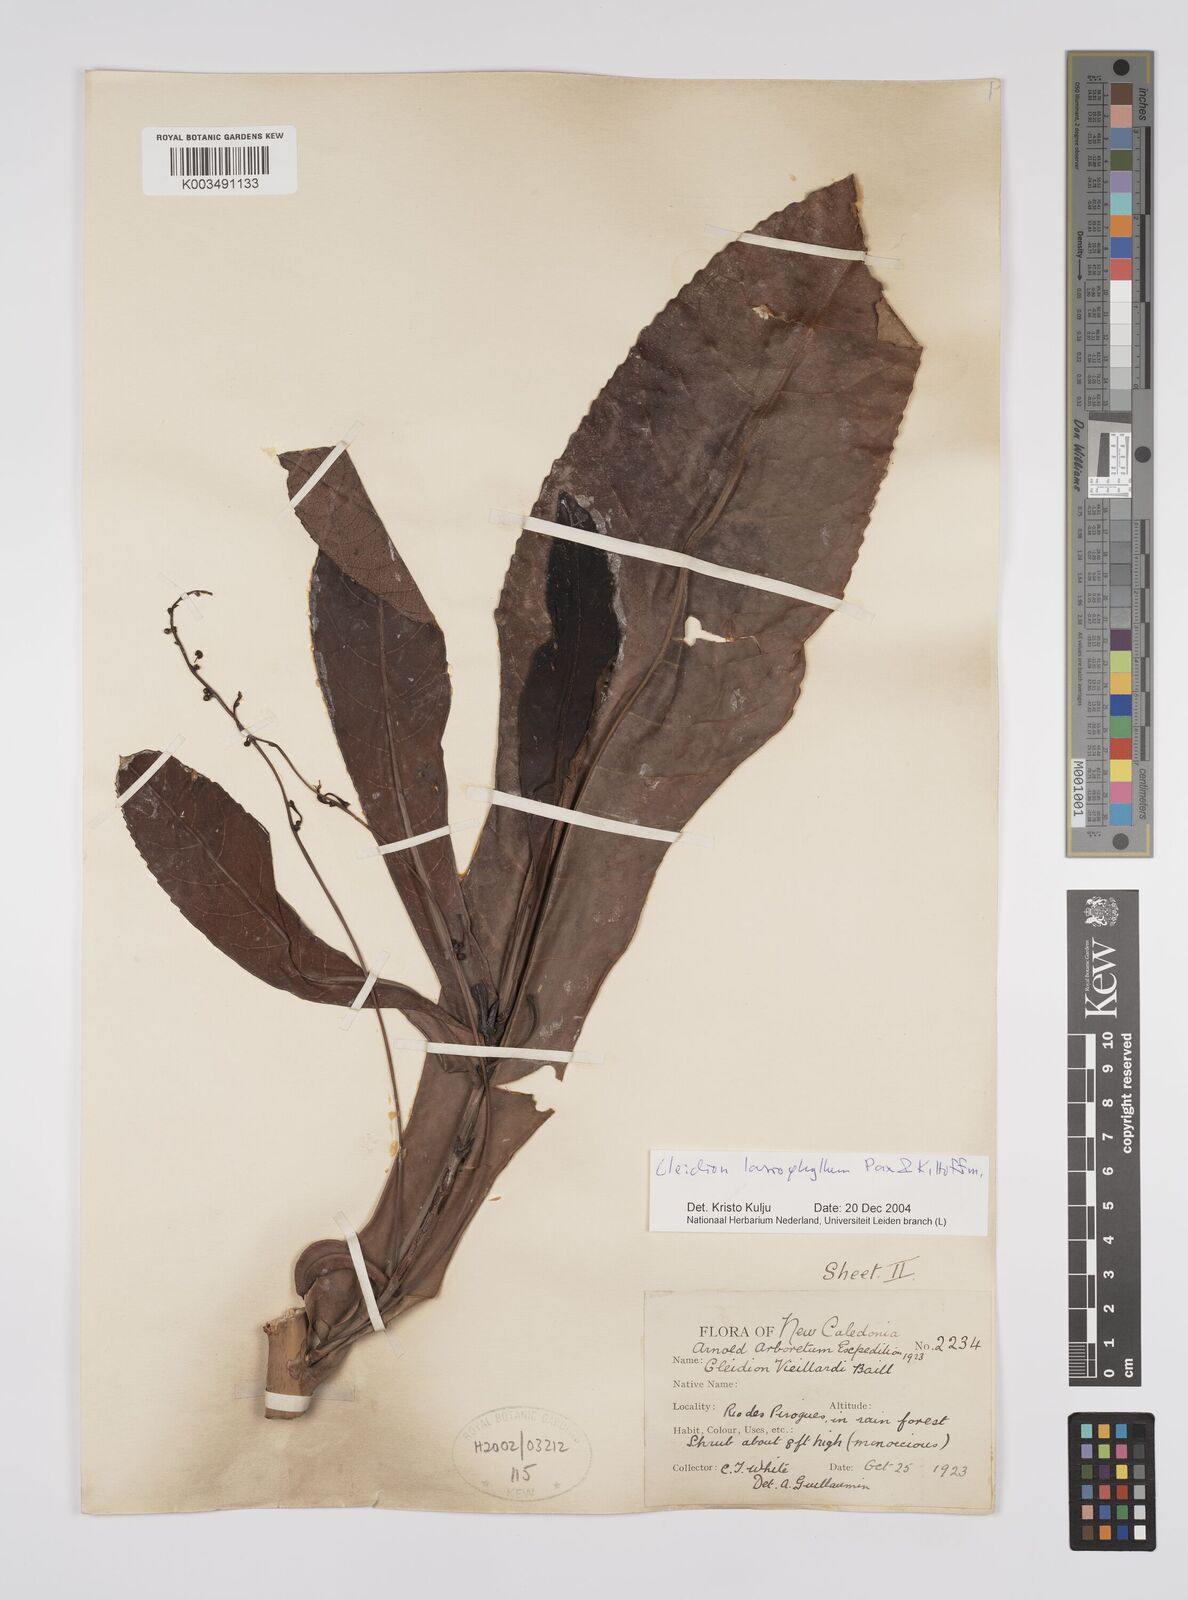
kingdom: Plantae
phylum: Tracheophyta
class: Magnoliopsida
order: Malpighiales
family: Euphorbiaceae
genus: Cleidion
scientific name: Cleidion lasiophyllum
